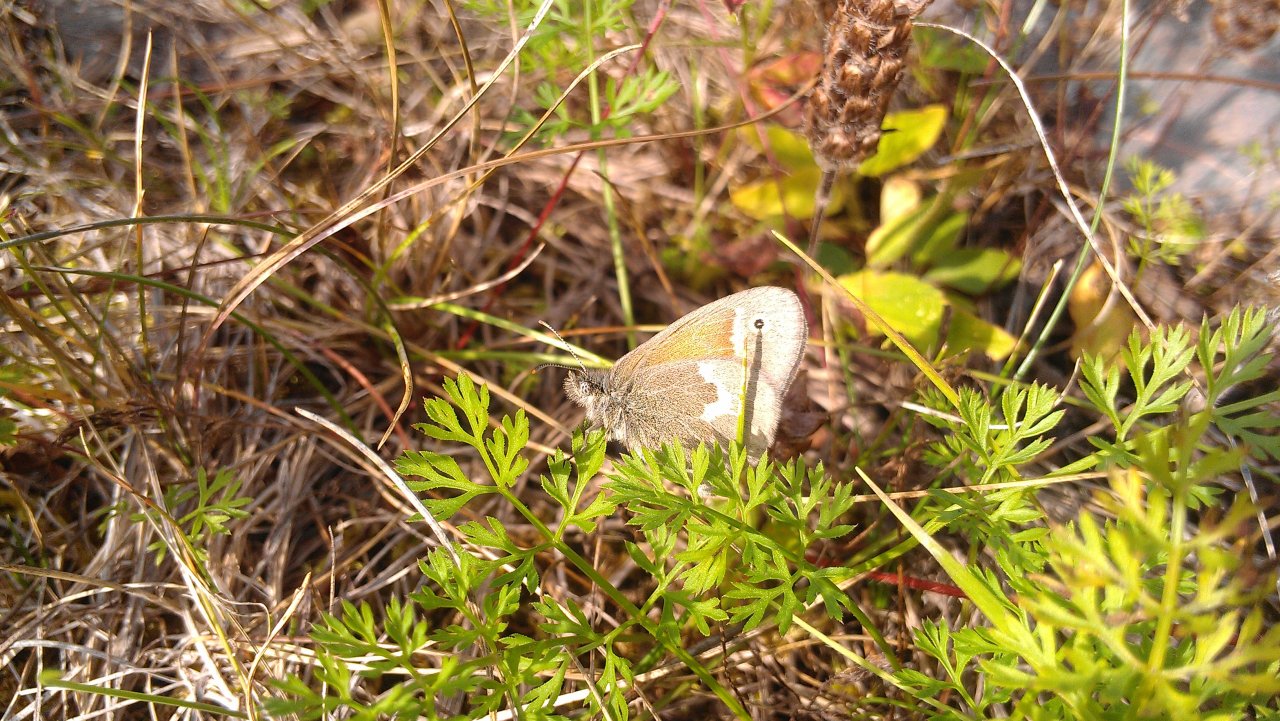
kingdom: Animalia
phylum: Arthropoda
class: Insecta
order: Lepidoptera
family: Nymphalidae
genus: Coenonympha
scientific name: Coenonympha tullia
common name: Large Heath
